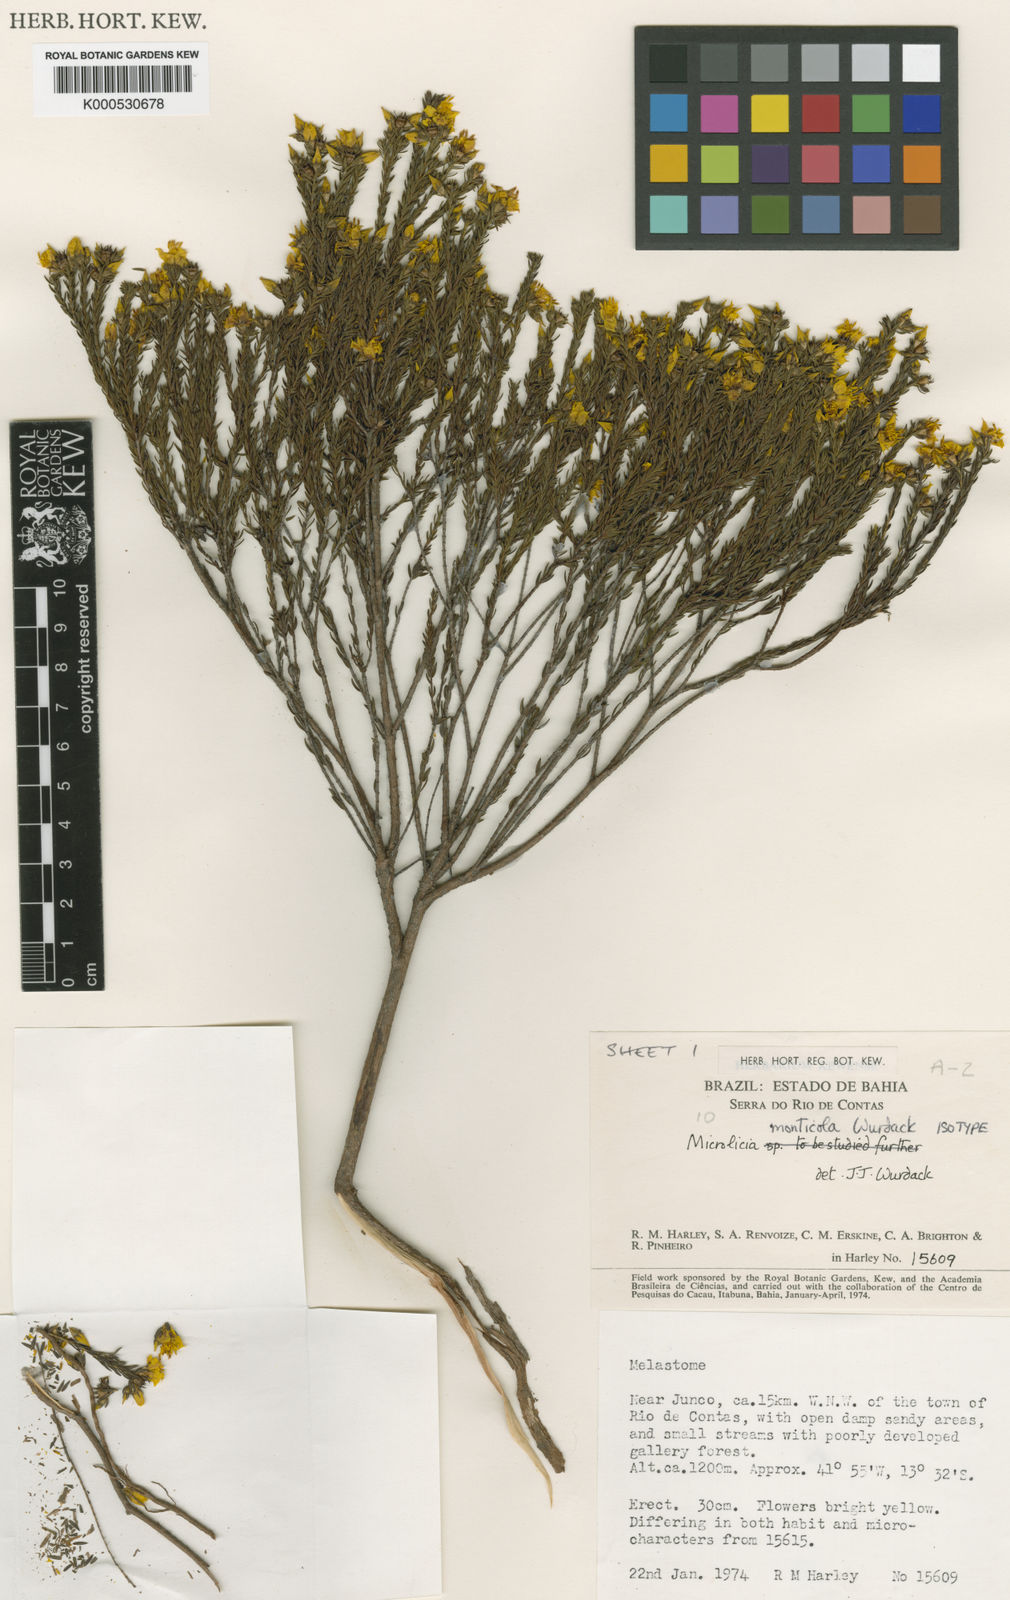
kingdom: Plantae
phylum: Tracheophyta
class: Magnoliopsida
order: Myrtales
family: Melastomataceae
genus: Microlicia
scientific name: Microlicia monticola
